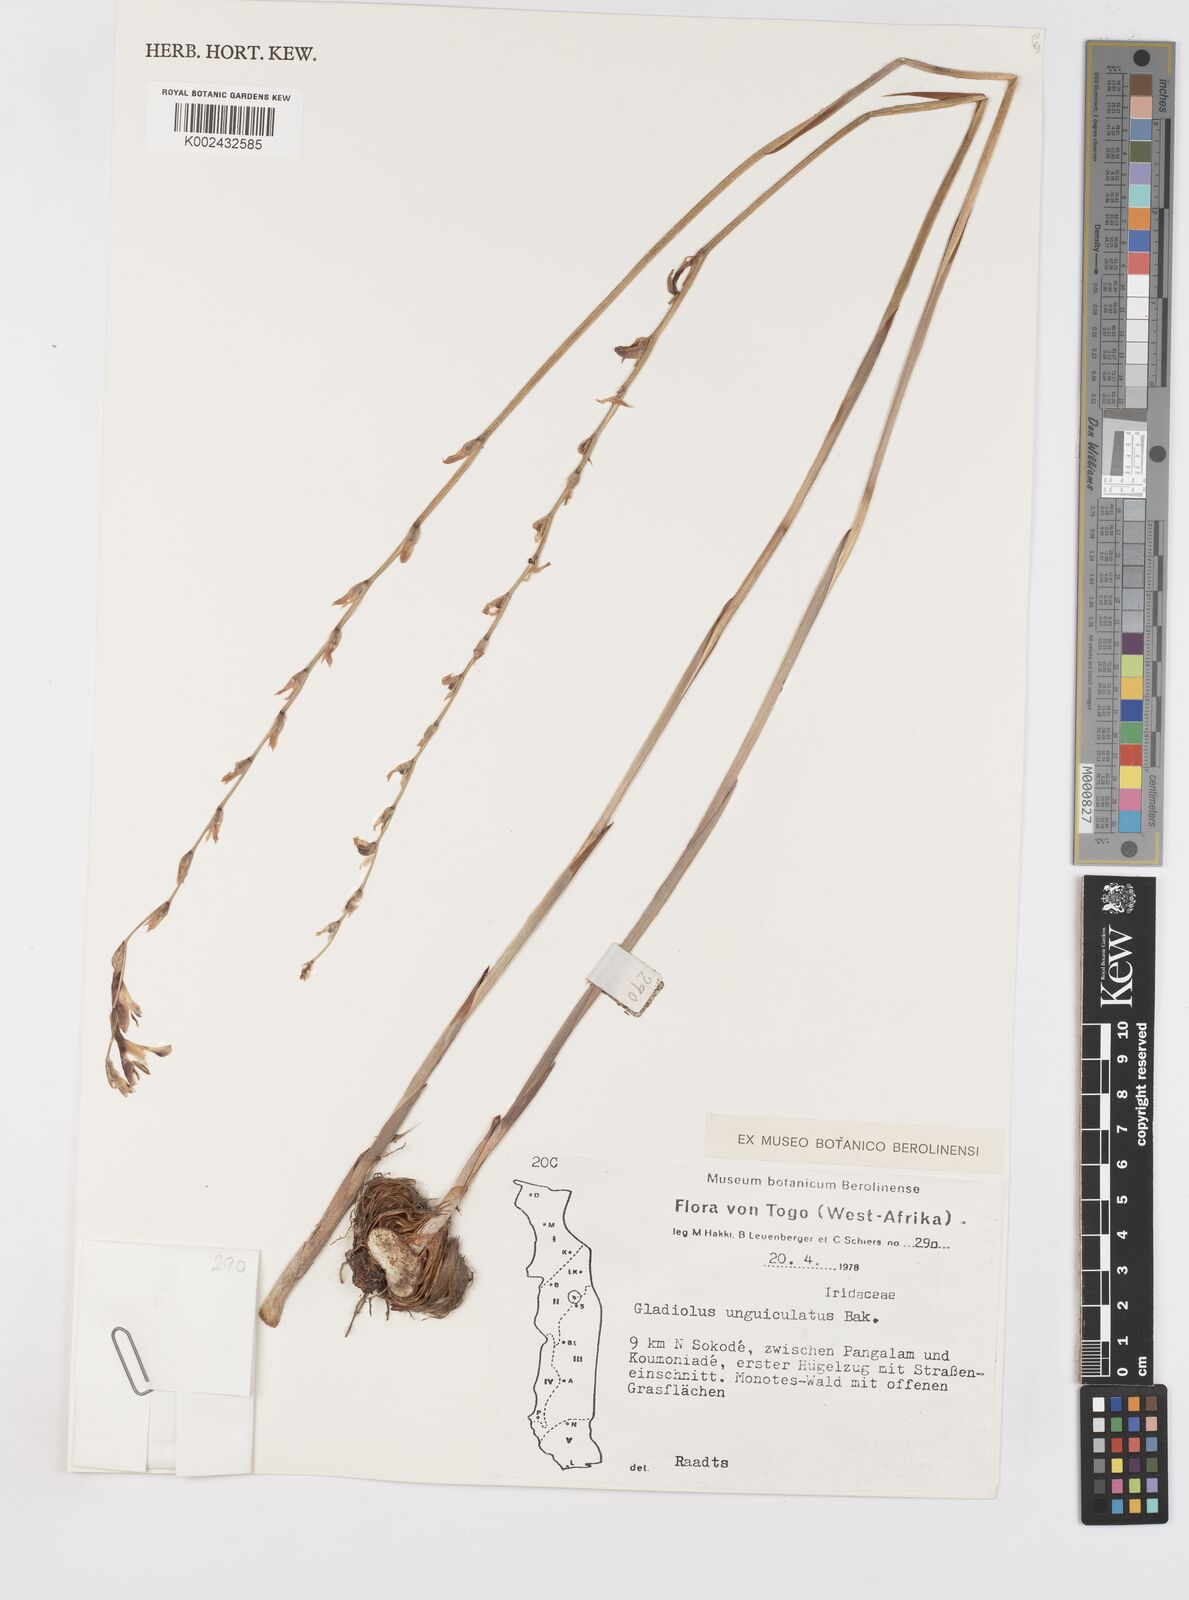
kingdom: Plantae
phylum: Tracheophyta
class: Liliopsida
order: Asparagales
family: Iridaceae
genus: Gladiolus
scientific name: Gladiolus atropurpureus
